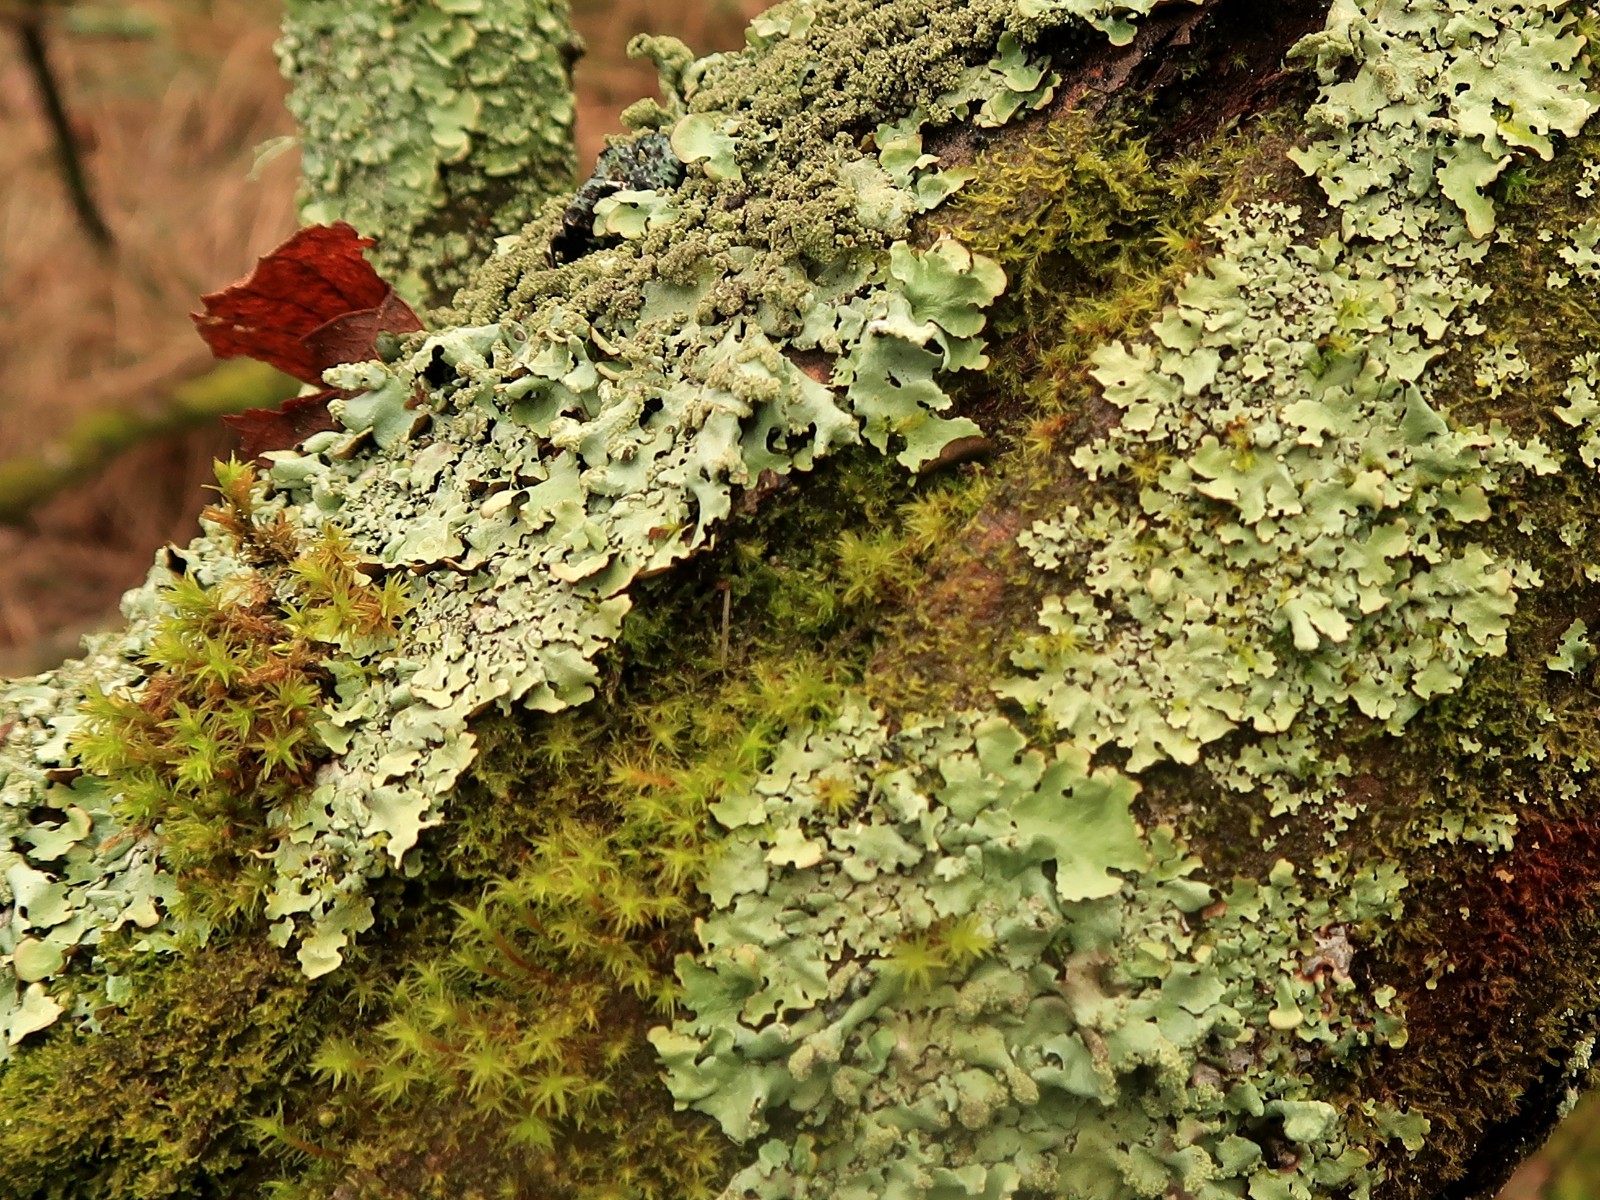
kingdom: Fungi
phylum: Ascomycota
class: Lecanoromycetes
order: Lecanorales
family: Parmeliaceae
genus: Hypotrachyna
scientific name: Hypotrachyna afrorevoluta
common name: kyst-skållav
